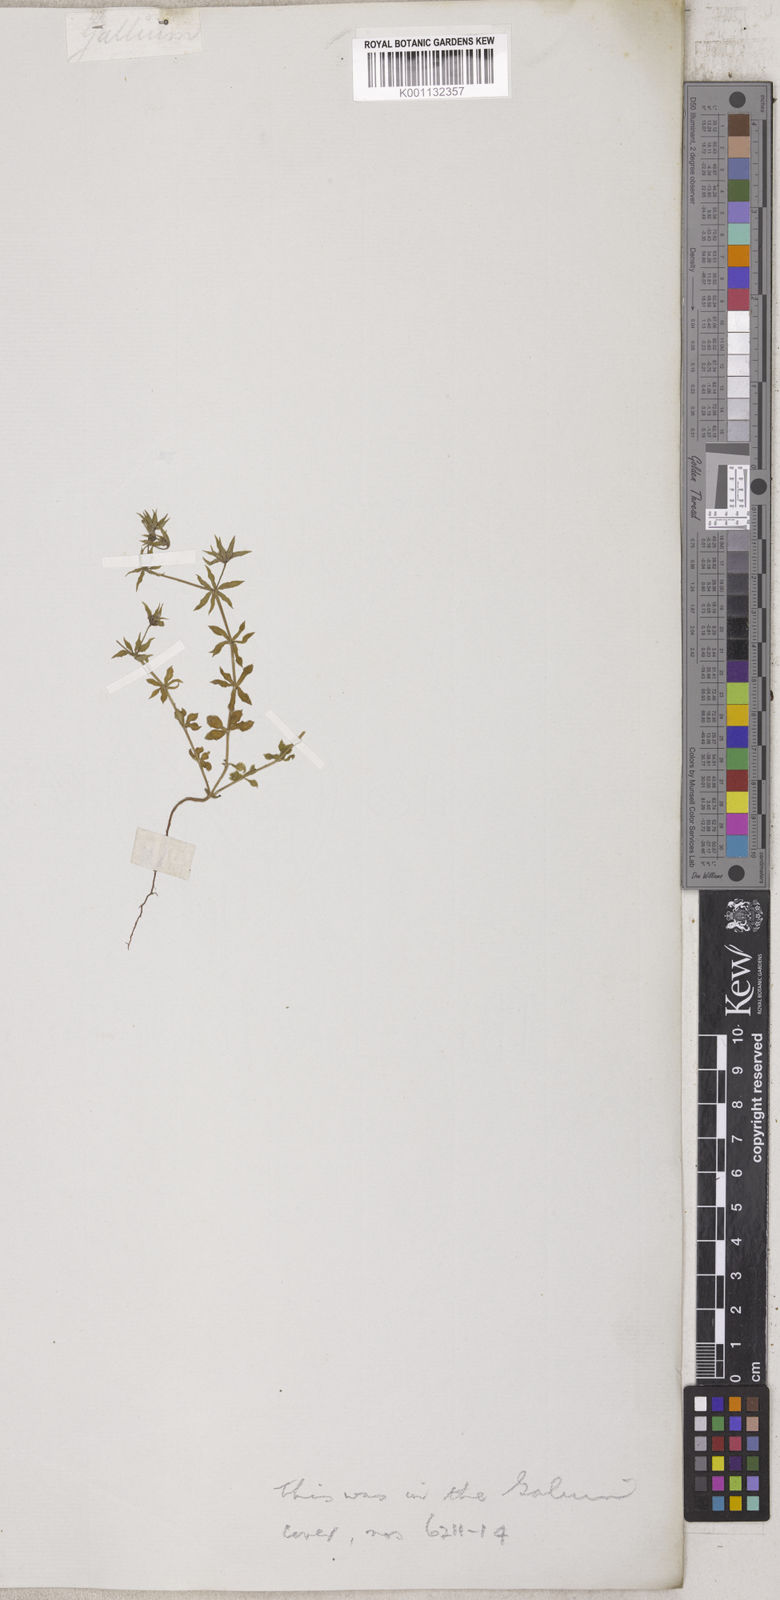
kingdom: Plantae
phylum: Tracheophyta
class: Magnoliopsida
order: Gentianales
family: Rubiaceae
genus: Galium
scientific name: Galium
